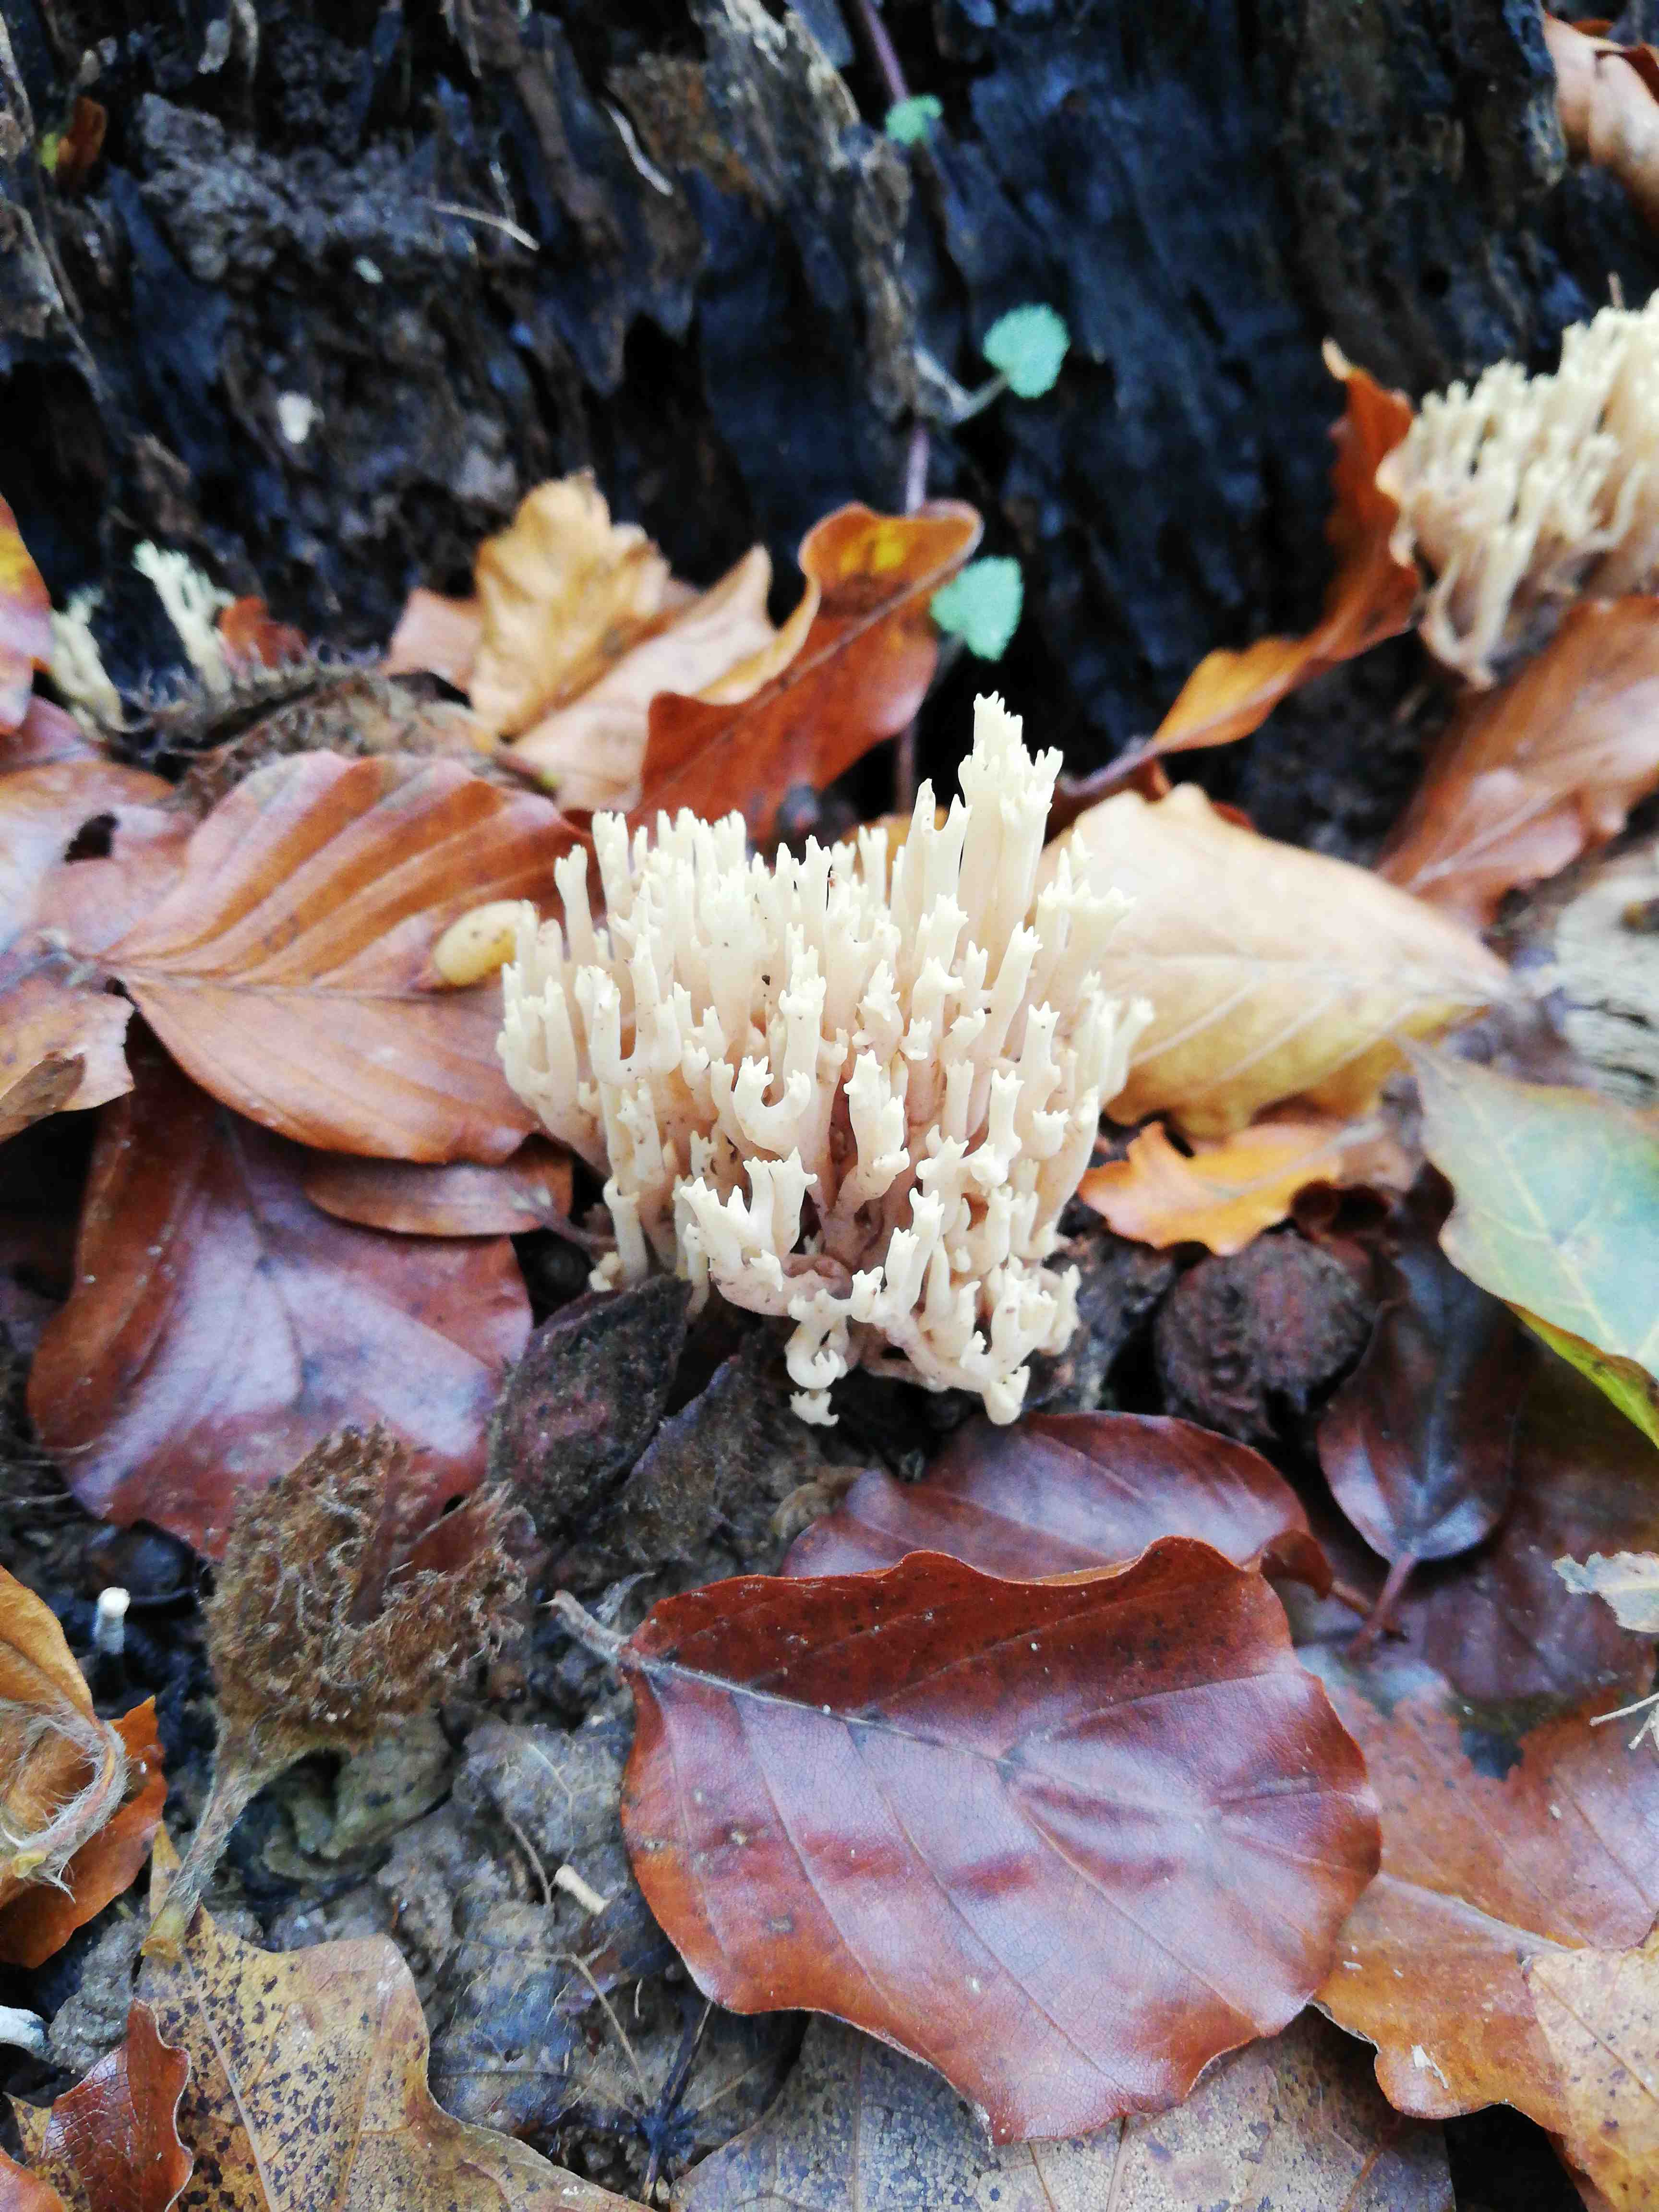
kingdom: Fungi
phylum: Basidiomycota
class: Agaricomycetes
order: Gomphales
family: Gomphaceae
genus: Ramaria
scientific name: Ramaria stricta
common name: rank koralsvamp
